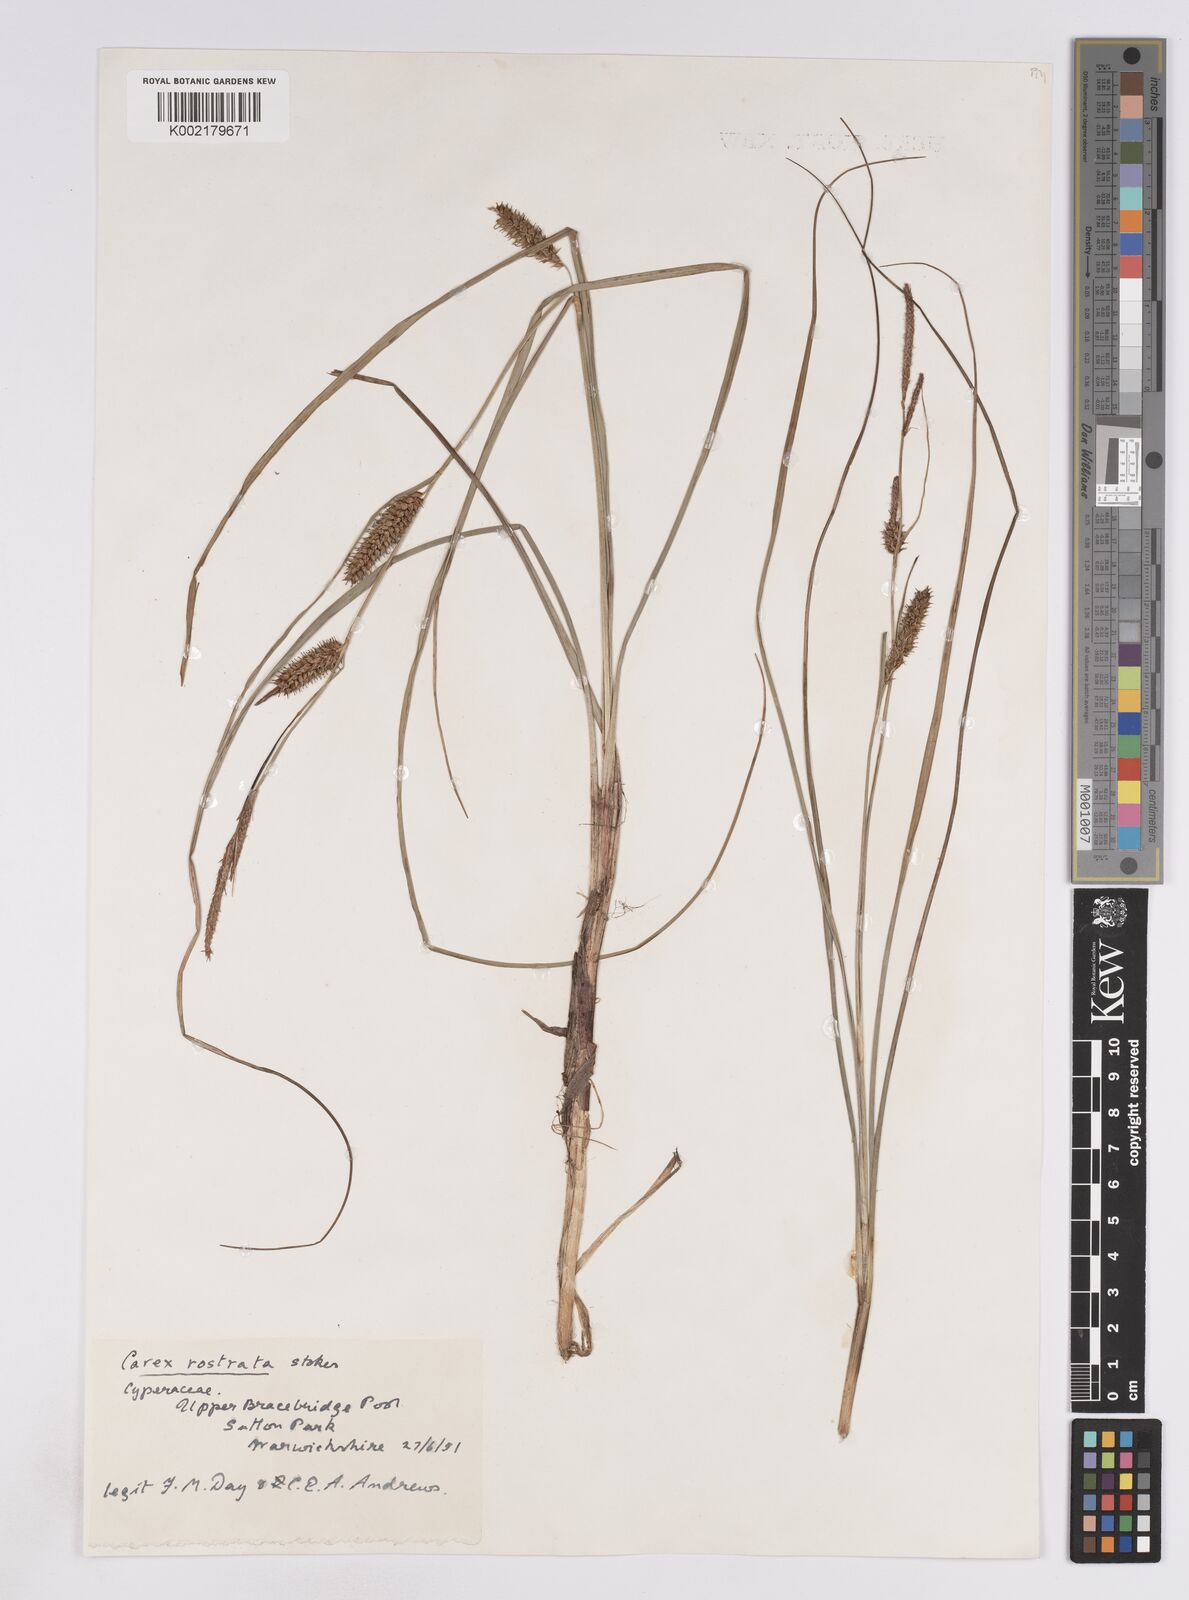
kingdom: Plantae
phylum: Tracheophyta
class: Liliopsida
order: Poales
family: Cyperaceae
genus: Carex
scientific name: Carex rostrata
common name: Bottle sedge
